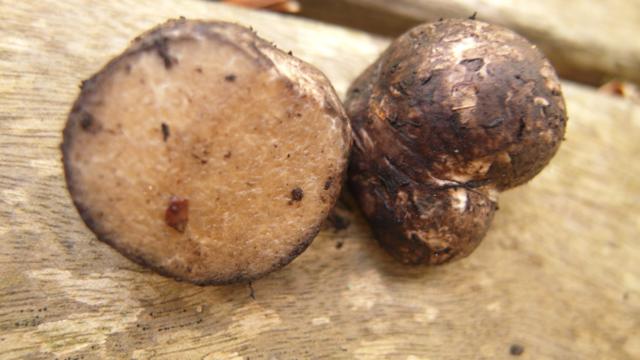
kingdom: Fungi
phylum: Basidiomycota
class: Agaricomycetes
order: Boletales
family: Boletaceae
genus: Octaviania
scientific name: Octaviania
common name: løvtrøffel
